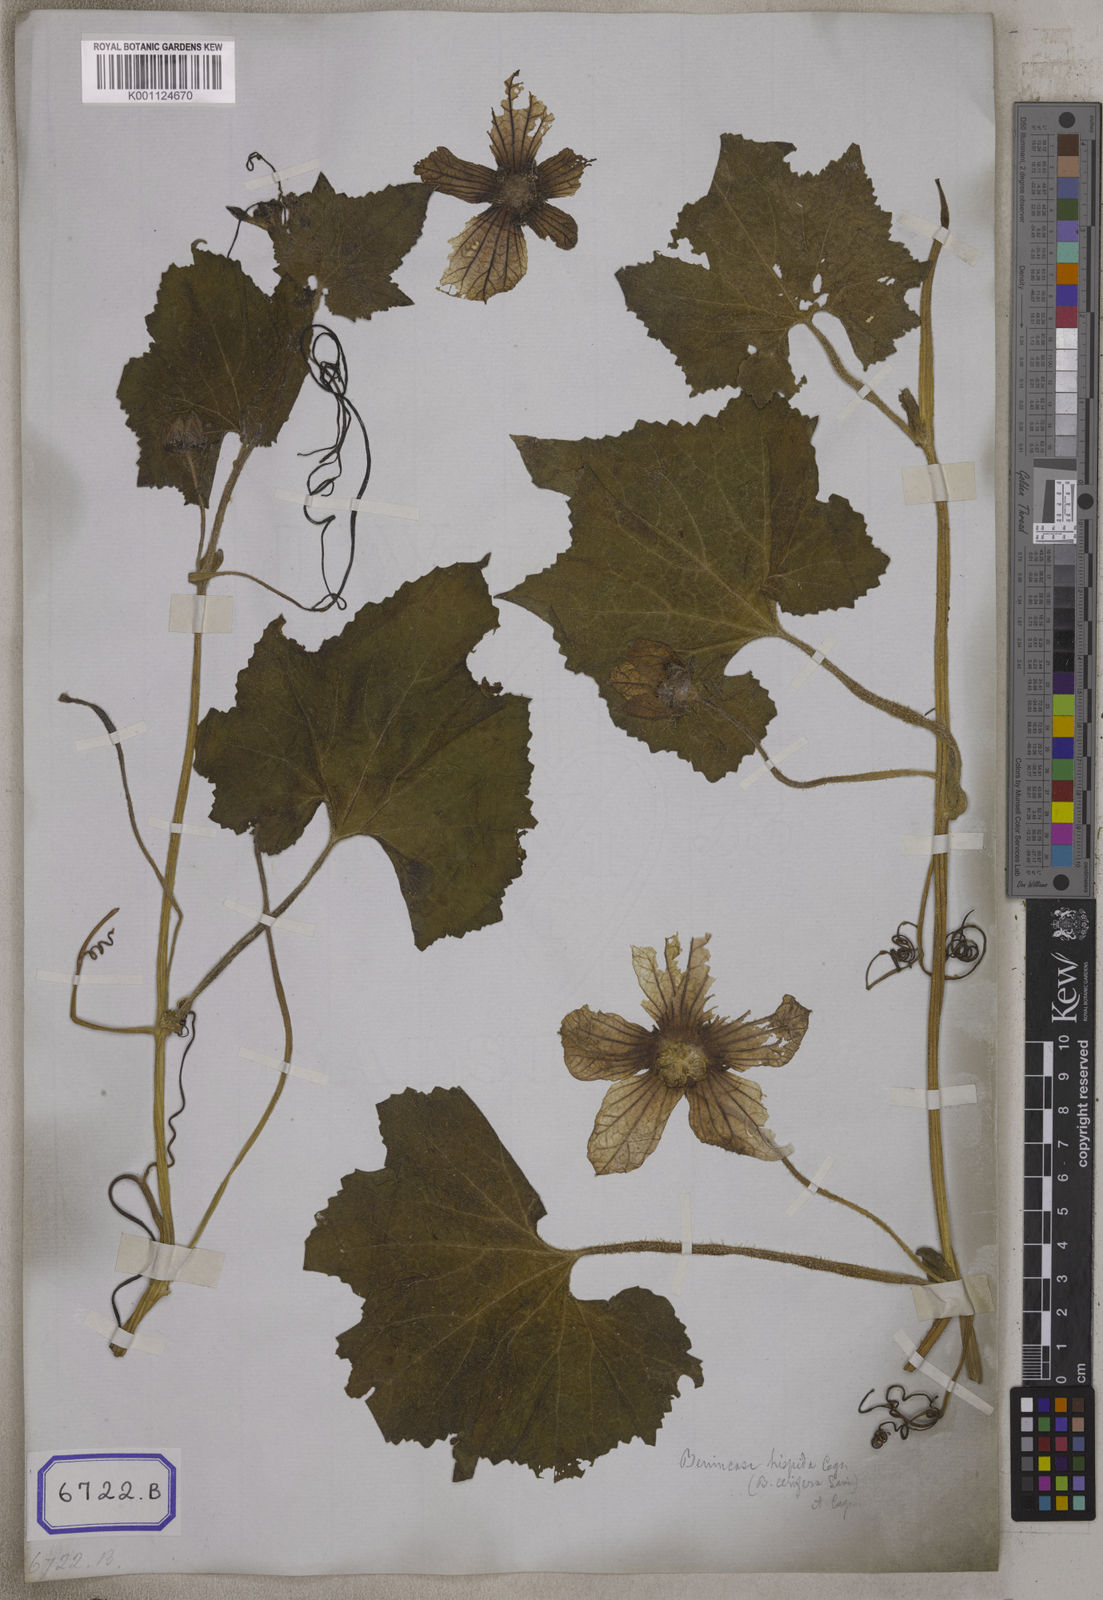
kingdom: Plantae
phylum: Tracheophyta
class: Magnoliopsida
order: Cucurbitales
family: Cucurbitaceae
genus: Cucurbita
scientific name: Cucurbita
